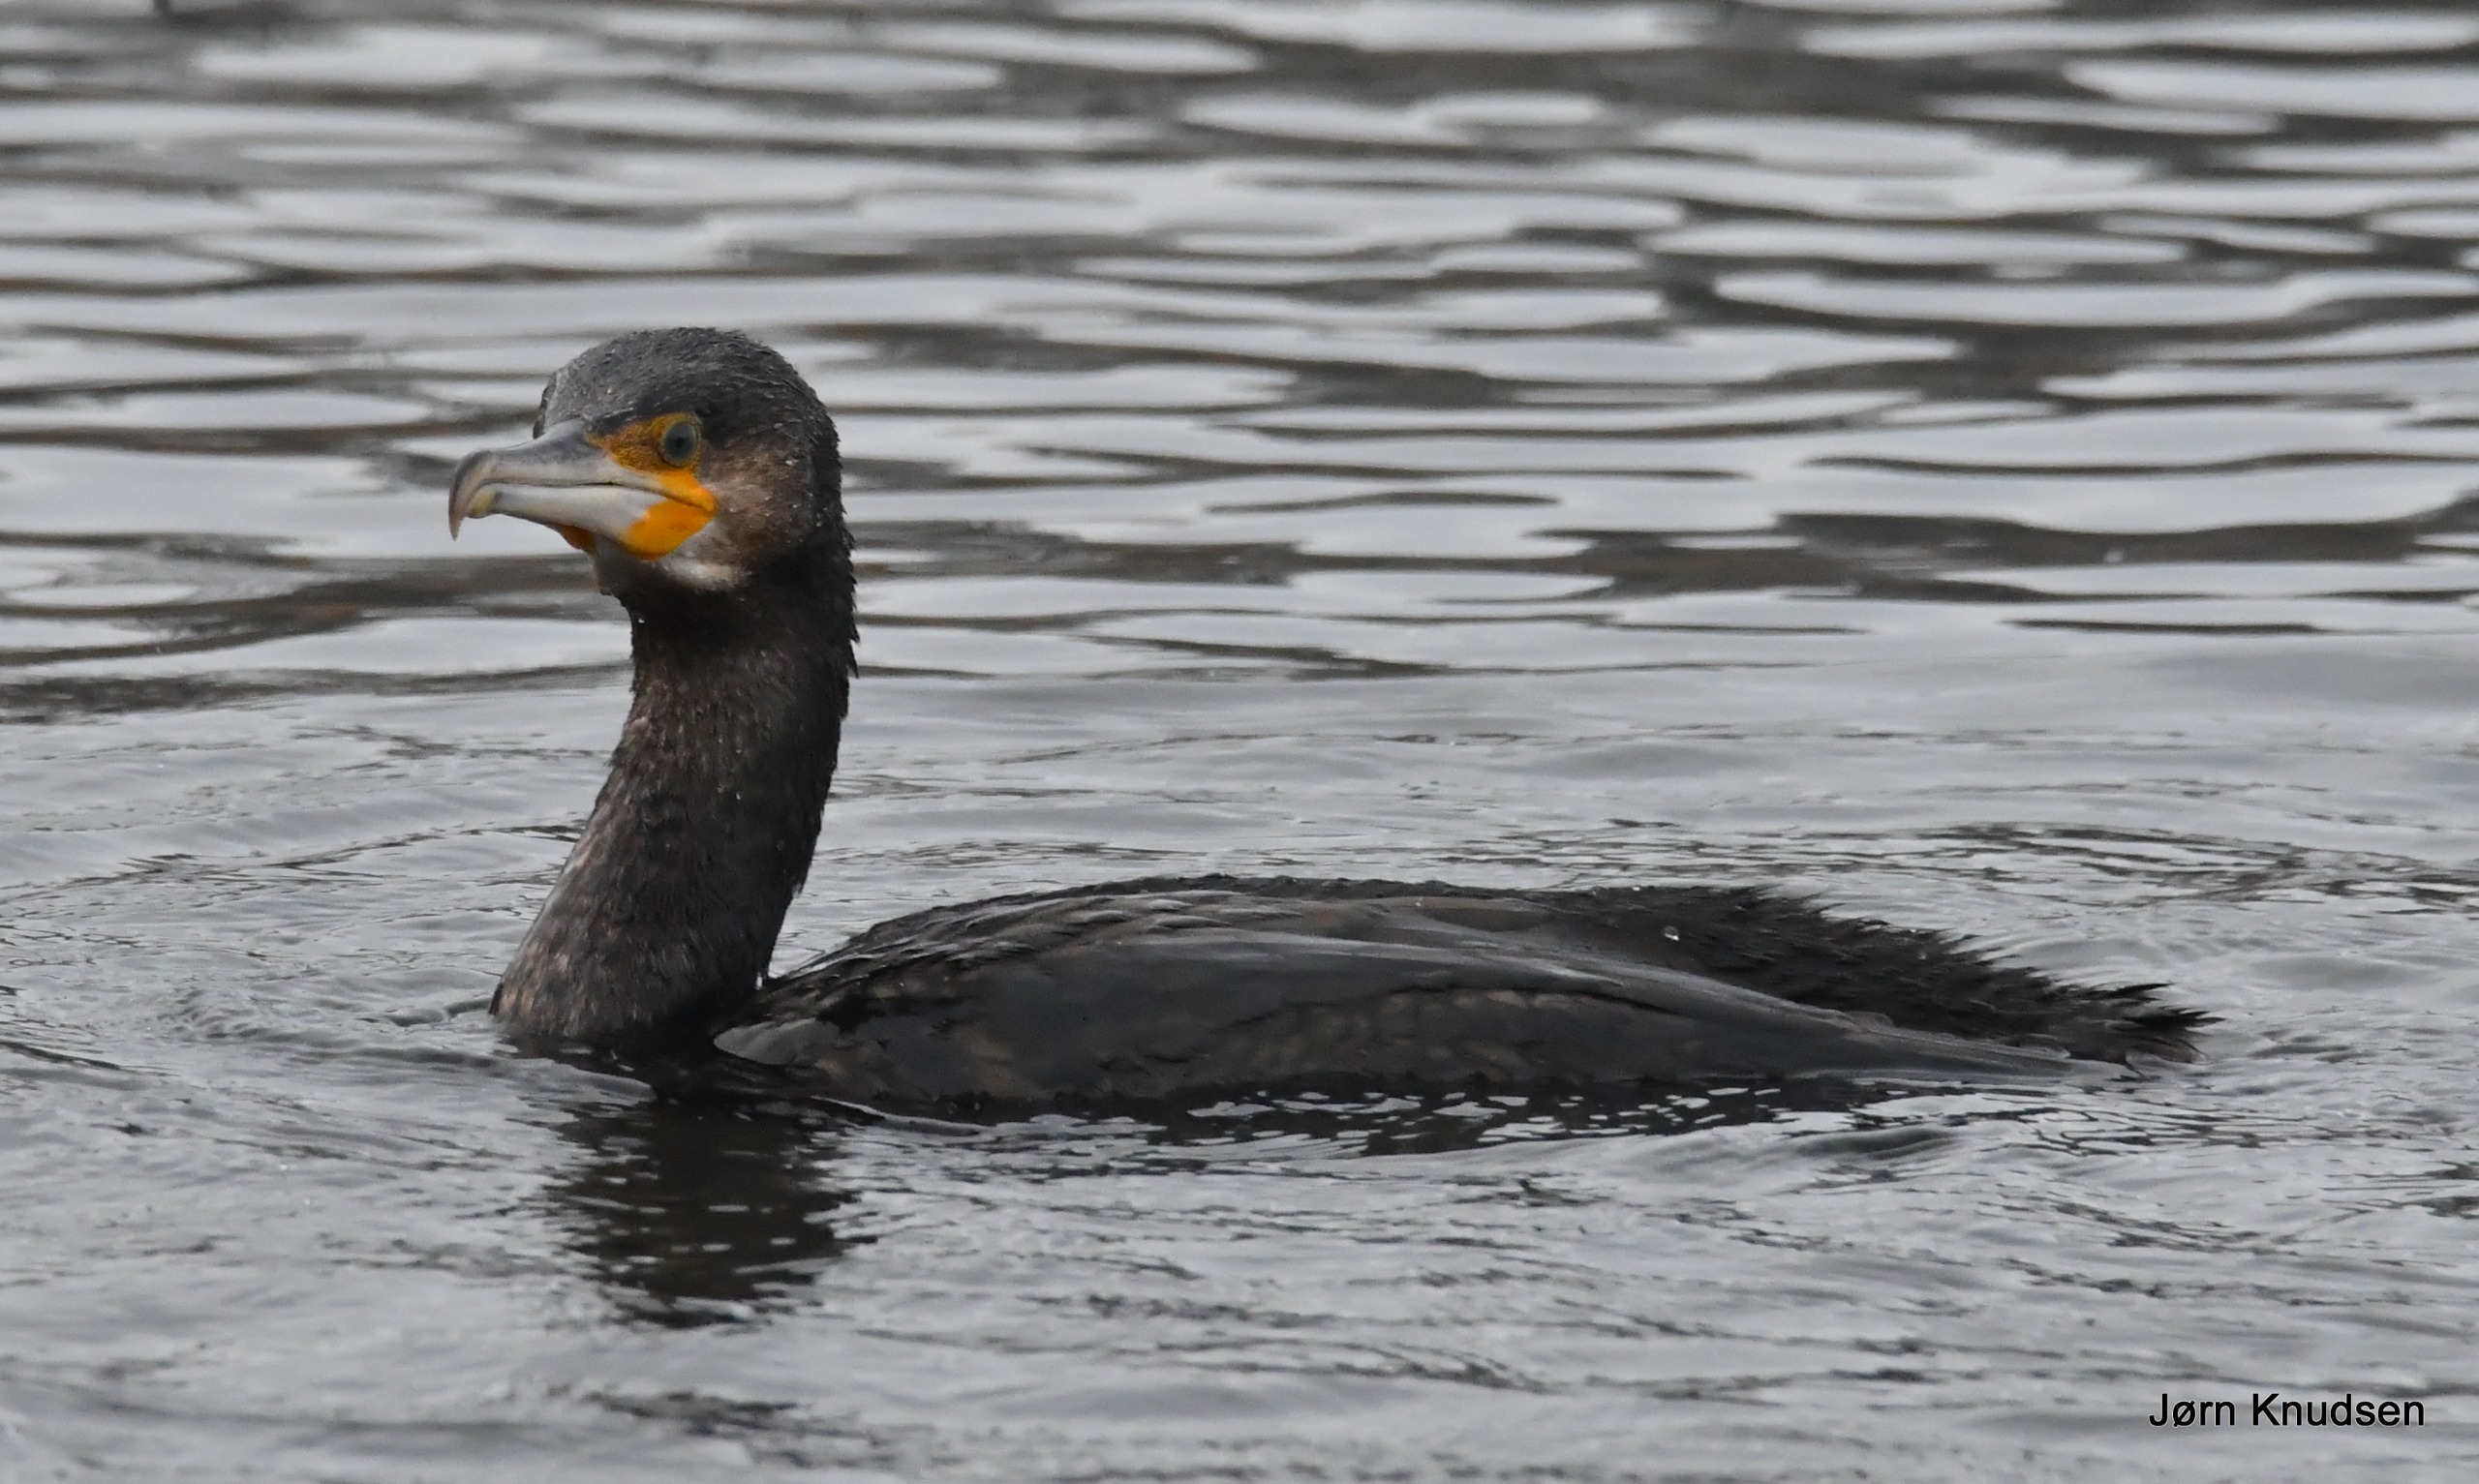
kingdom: Animalia
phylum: Chordata
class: Aves
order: Suliformes
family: Phalacrocoracidae
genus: Phalacrocorax
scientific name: Phalacrocorax carbo
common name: Skarv
